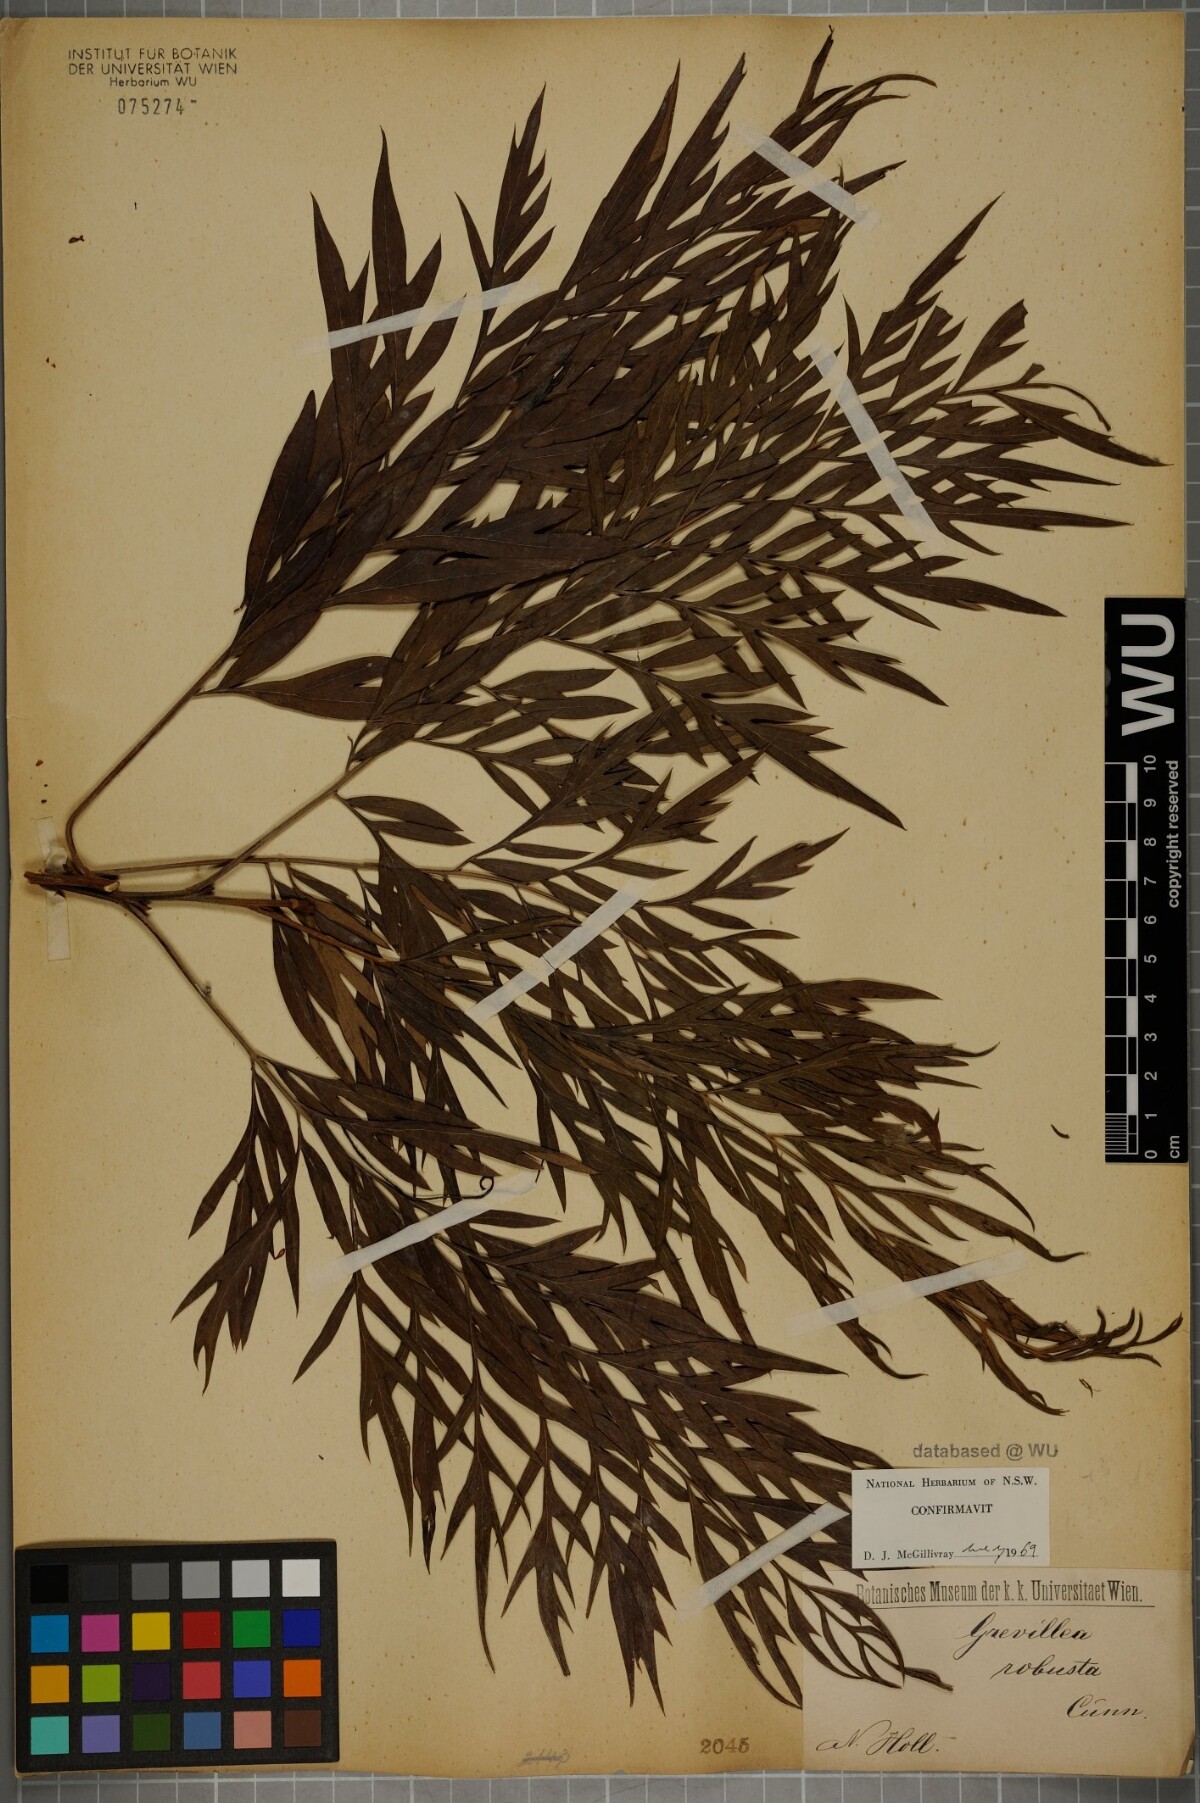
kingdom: Plantae
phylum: Tracheophyta
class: Magnoliopsida
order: Proteales
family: Proteaceae
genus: Grevillea
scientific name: Grevillea robusta
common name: Silkoak
